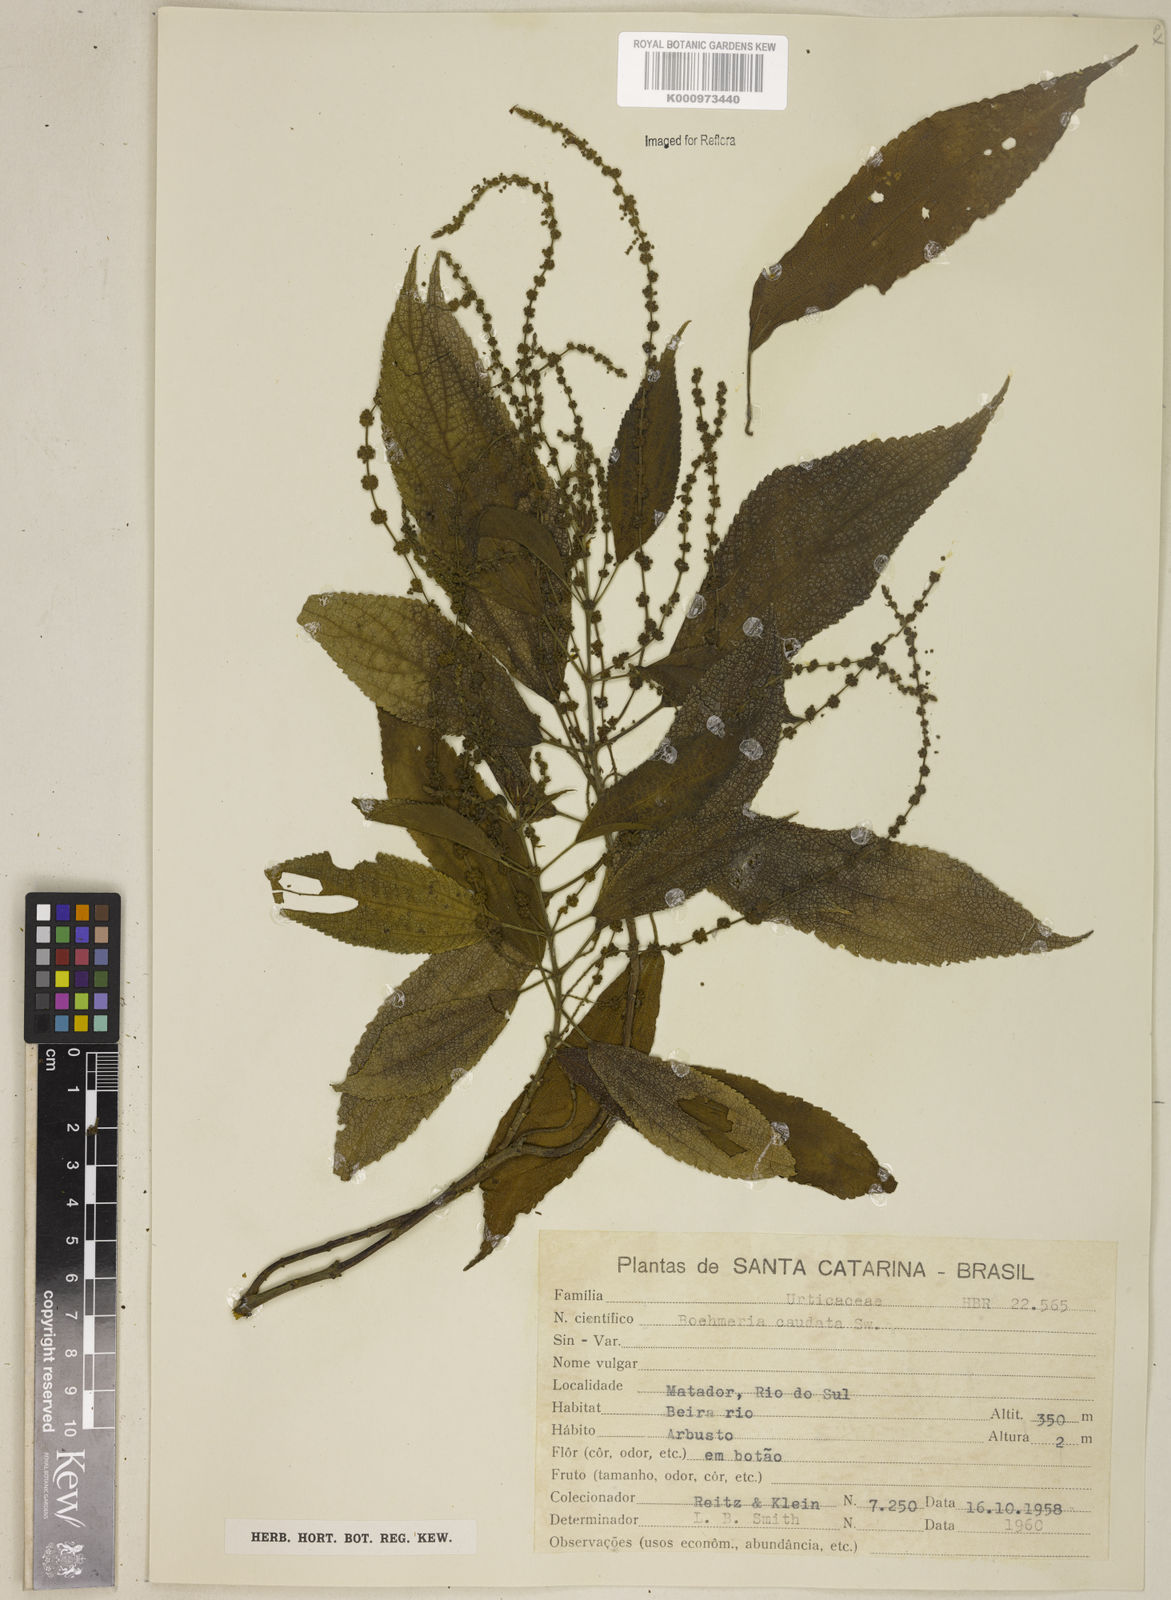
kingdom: Plantae
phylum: Tracheophyta
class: Magnoliopsida
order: Rosales
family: Urticaceae
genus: Boehmeria
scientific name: Boehmeria caudata
